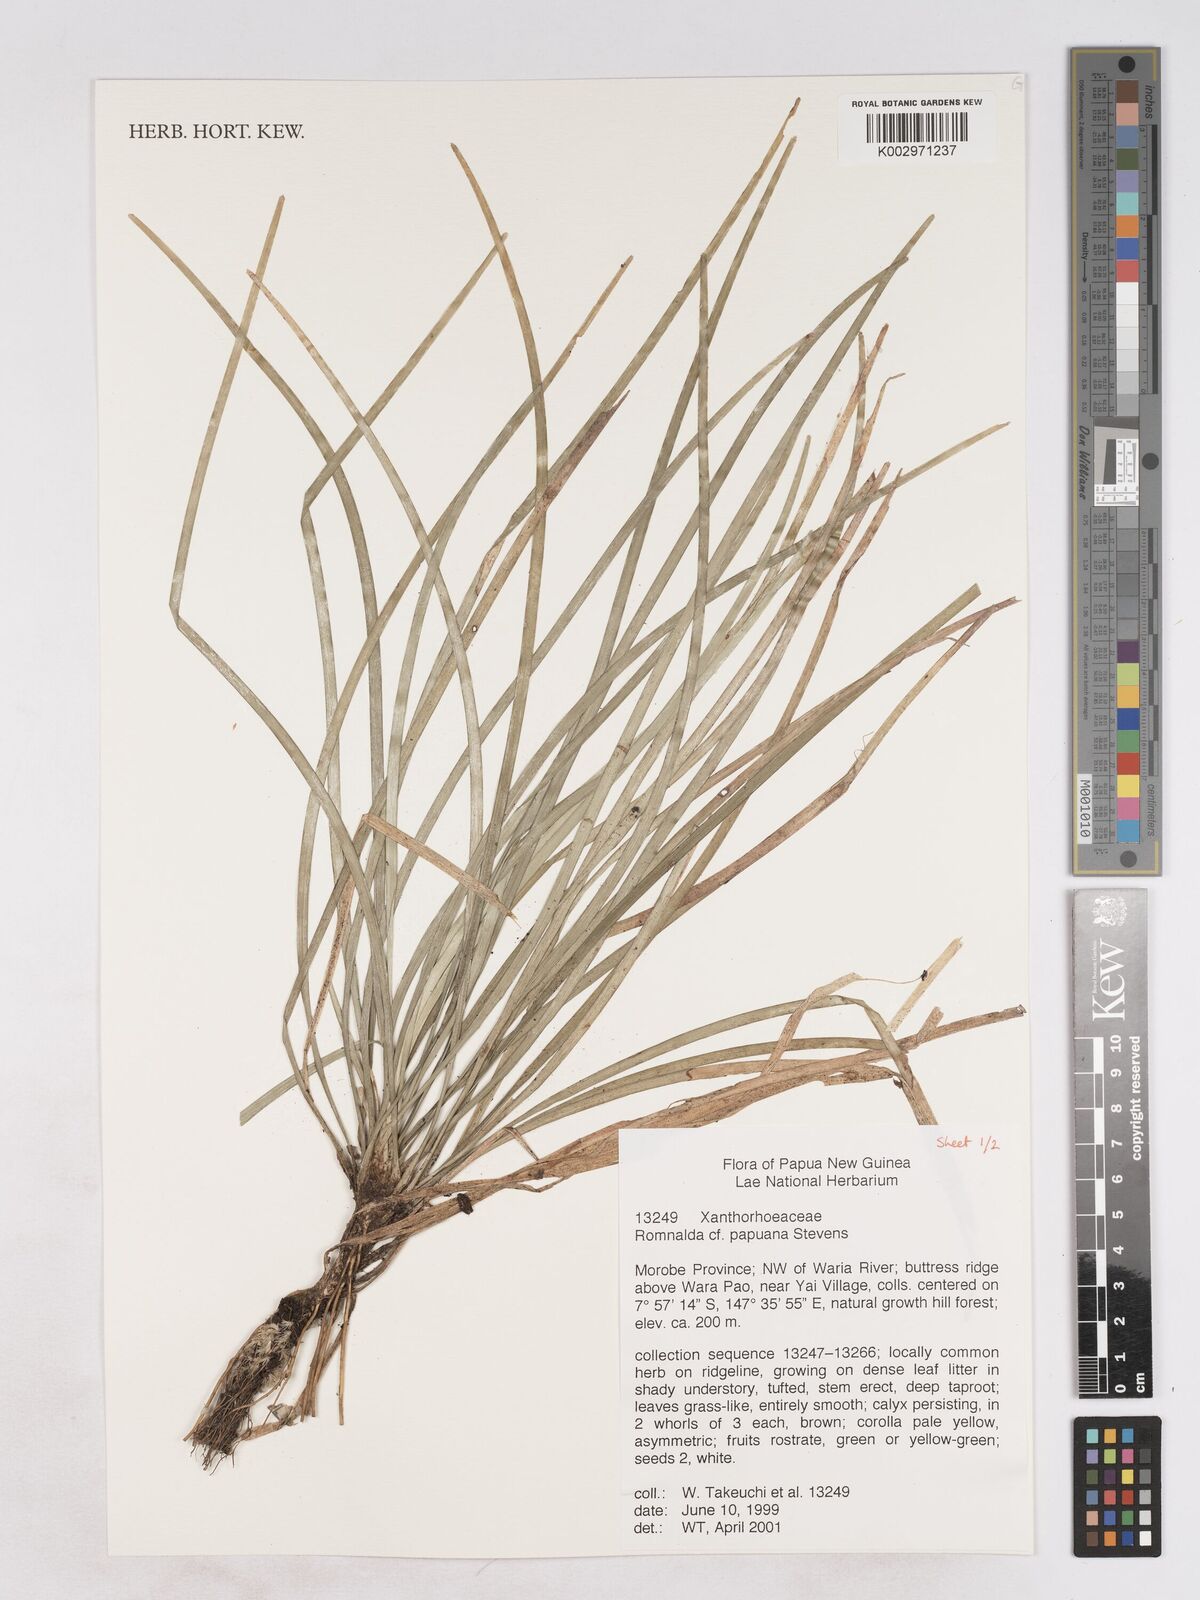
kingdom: Plantae
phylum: Tracheophyta
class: Liliopsida
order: Asparagales
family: Asparagaceae
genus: Romnalda
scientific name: Romnalda papuana
